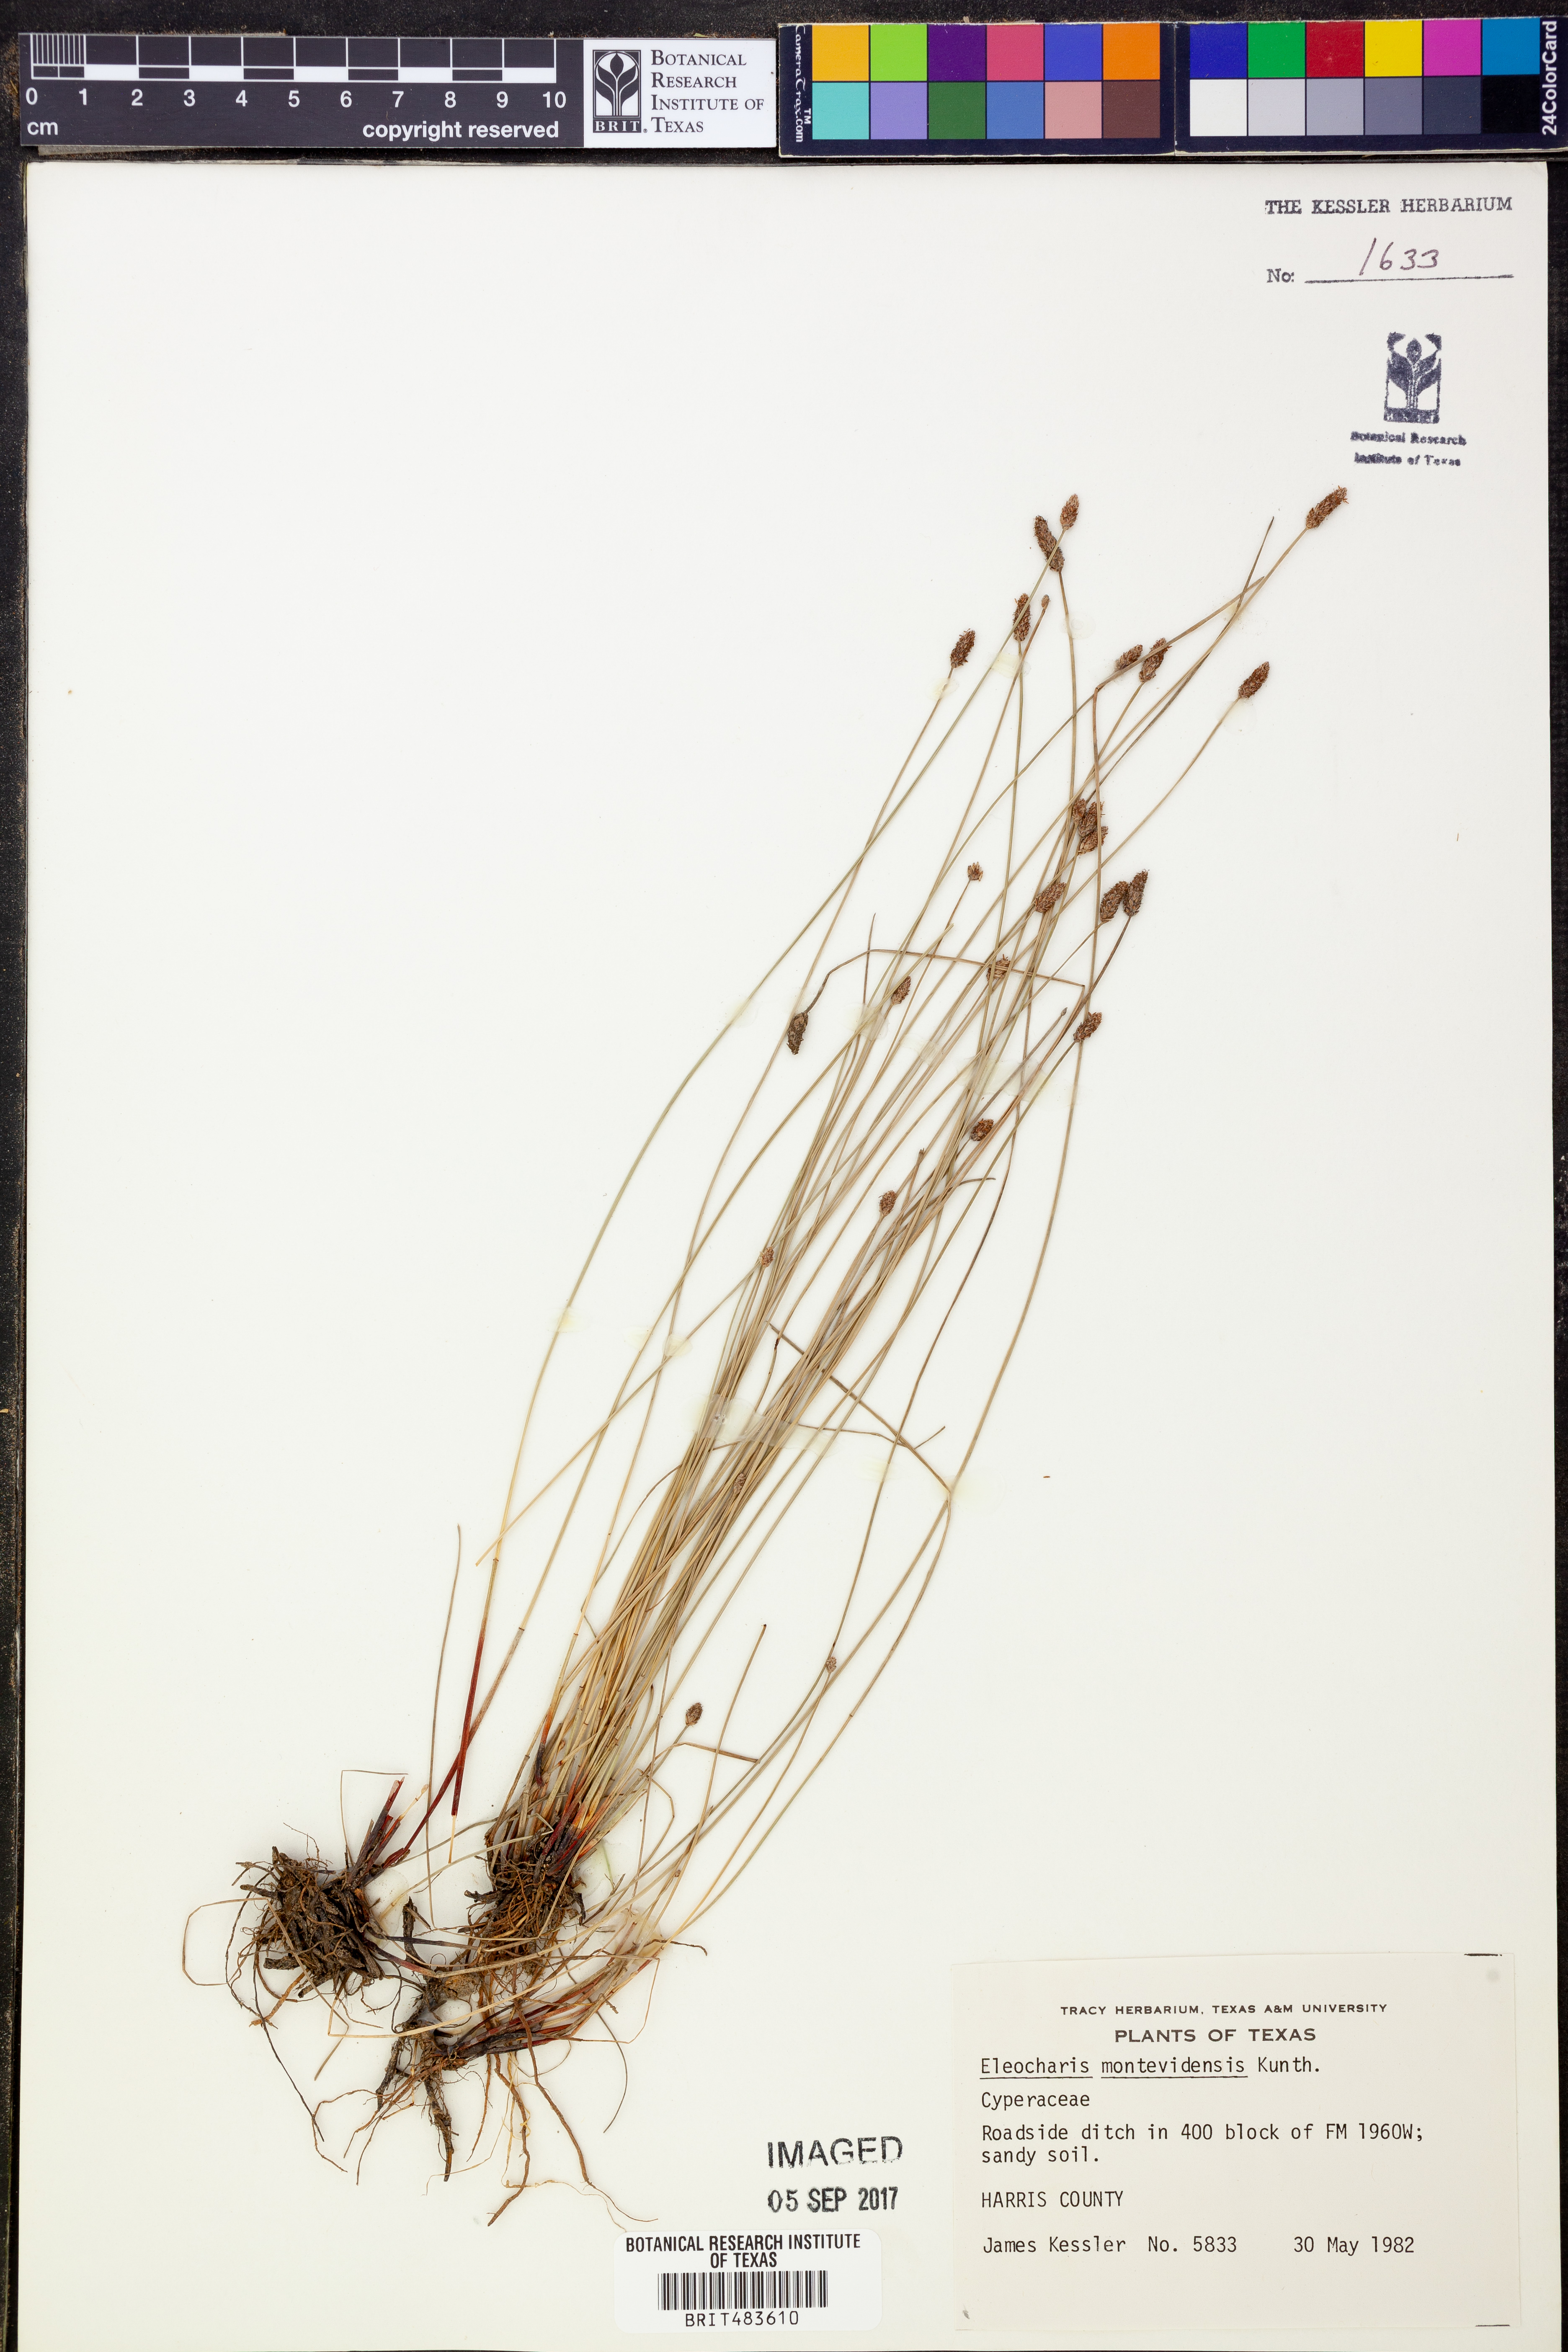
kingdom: Plantae
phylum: Tracheophyta
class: Liliopsida
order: Poales
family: Cyperaceae
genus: Eleocharis
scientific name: Eleocharis montevidensis
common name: Sand spike-rush
